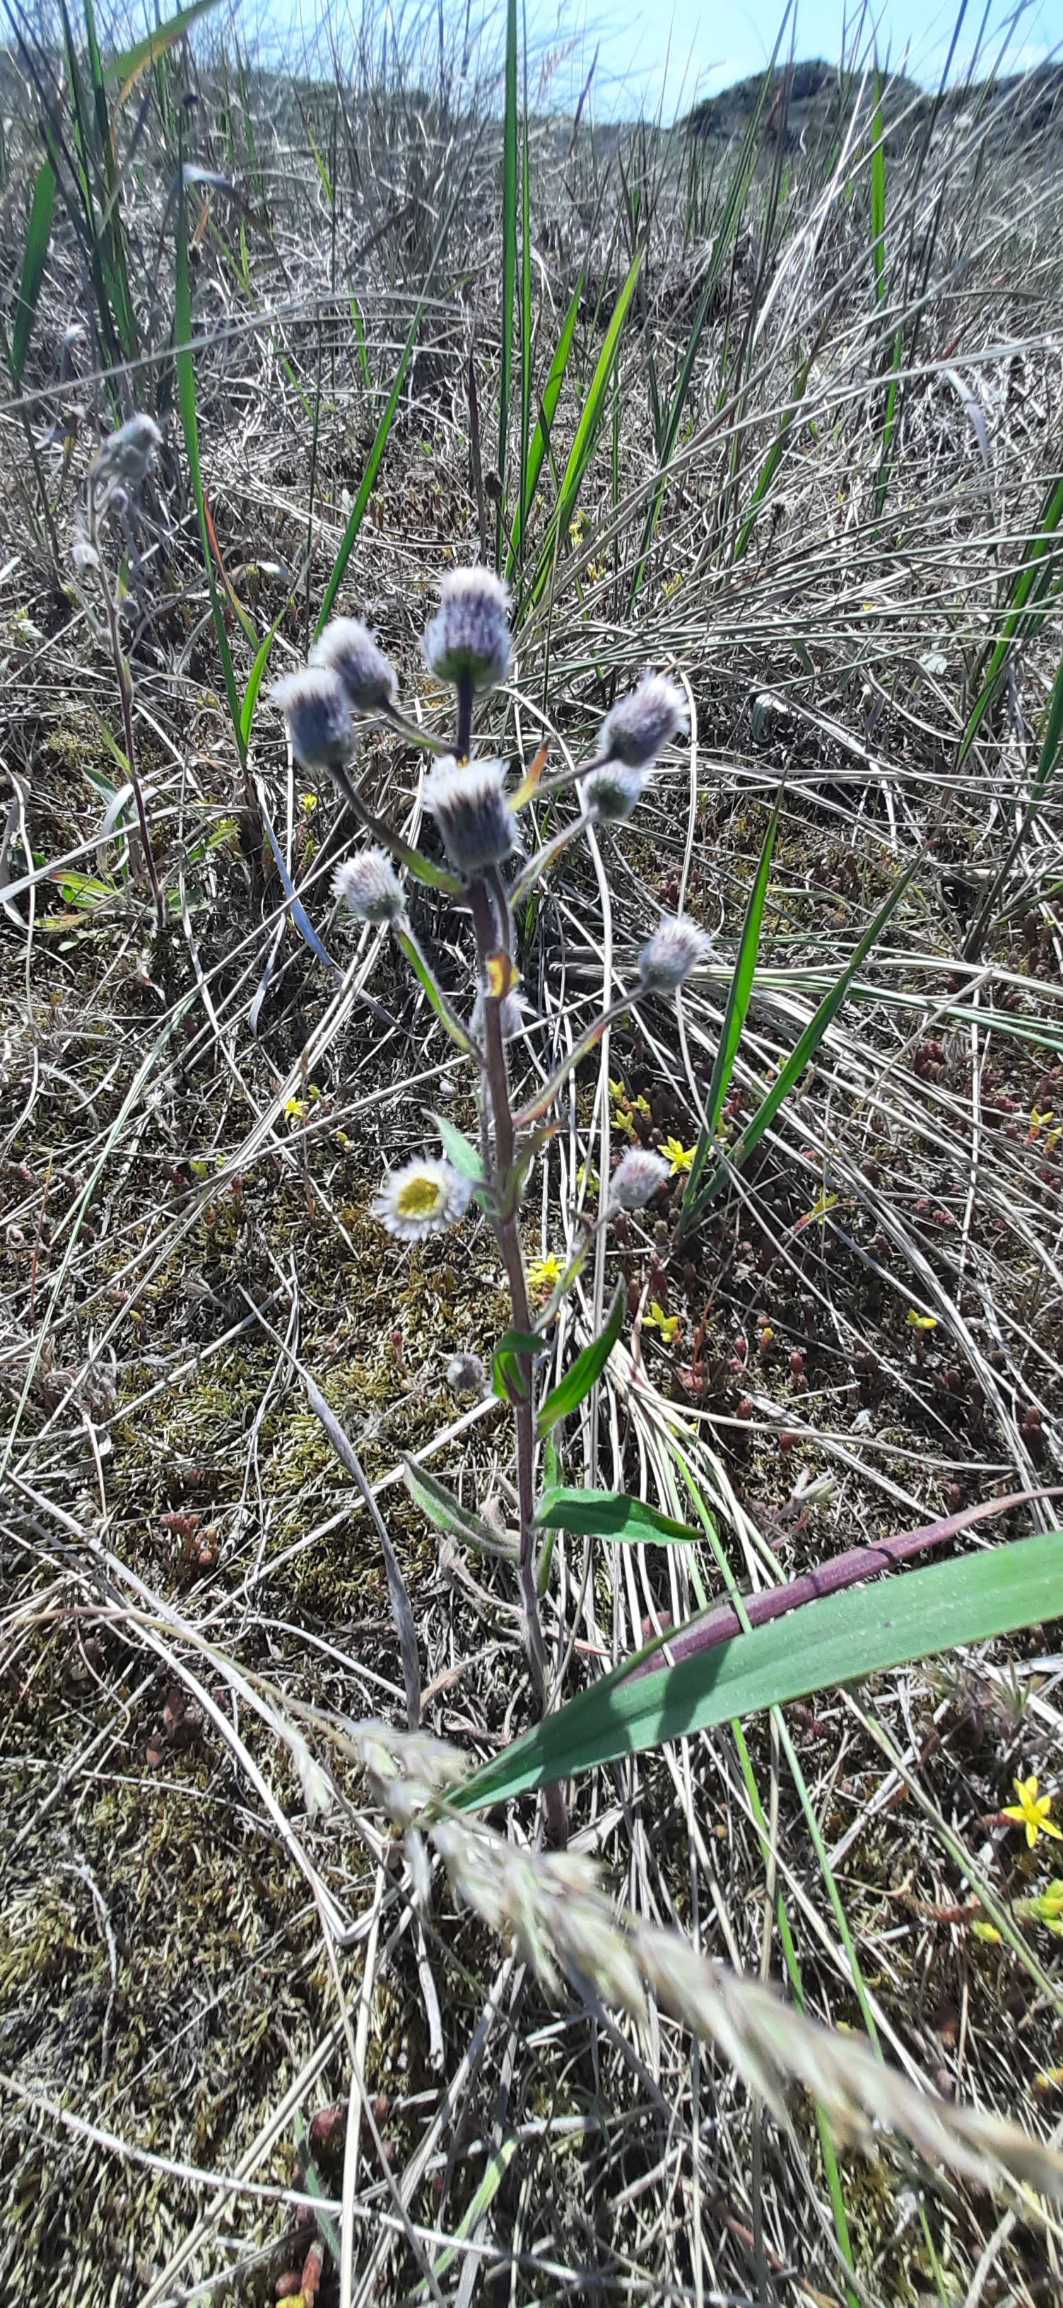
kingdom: Plantae
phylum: Tracheophyta
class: Magnoliopsida
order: Asterales
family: Asteraceae
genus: Erigeron
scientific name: Erigeron acris
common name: Bitter bakkestjerne
